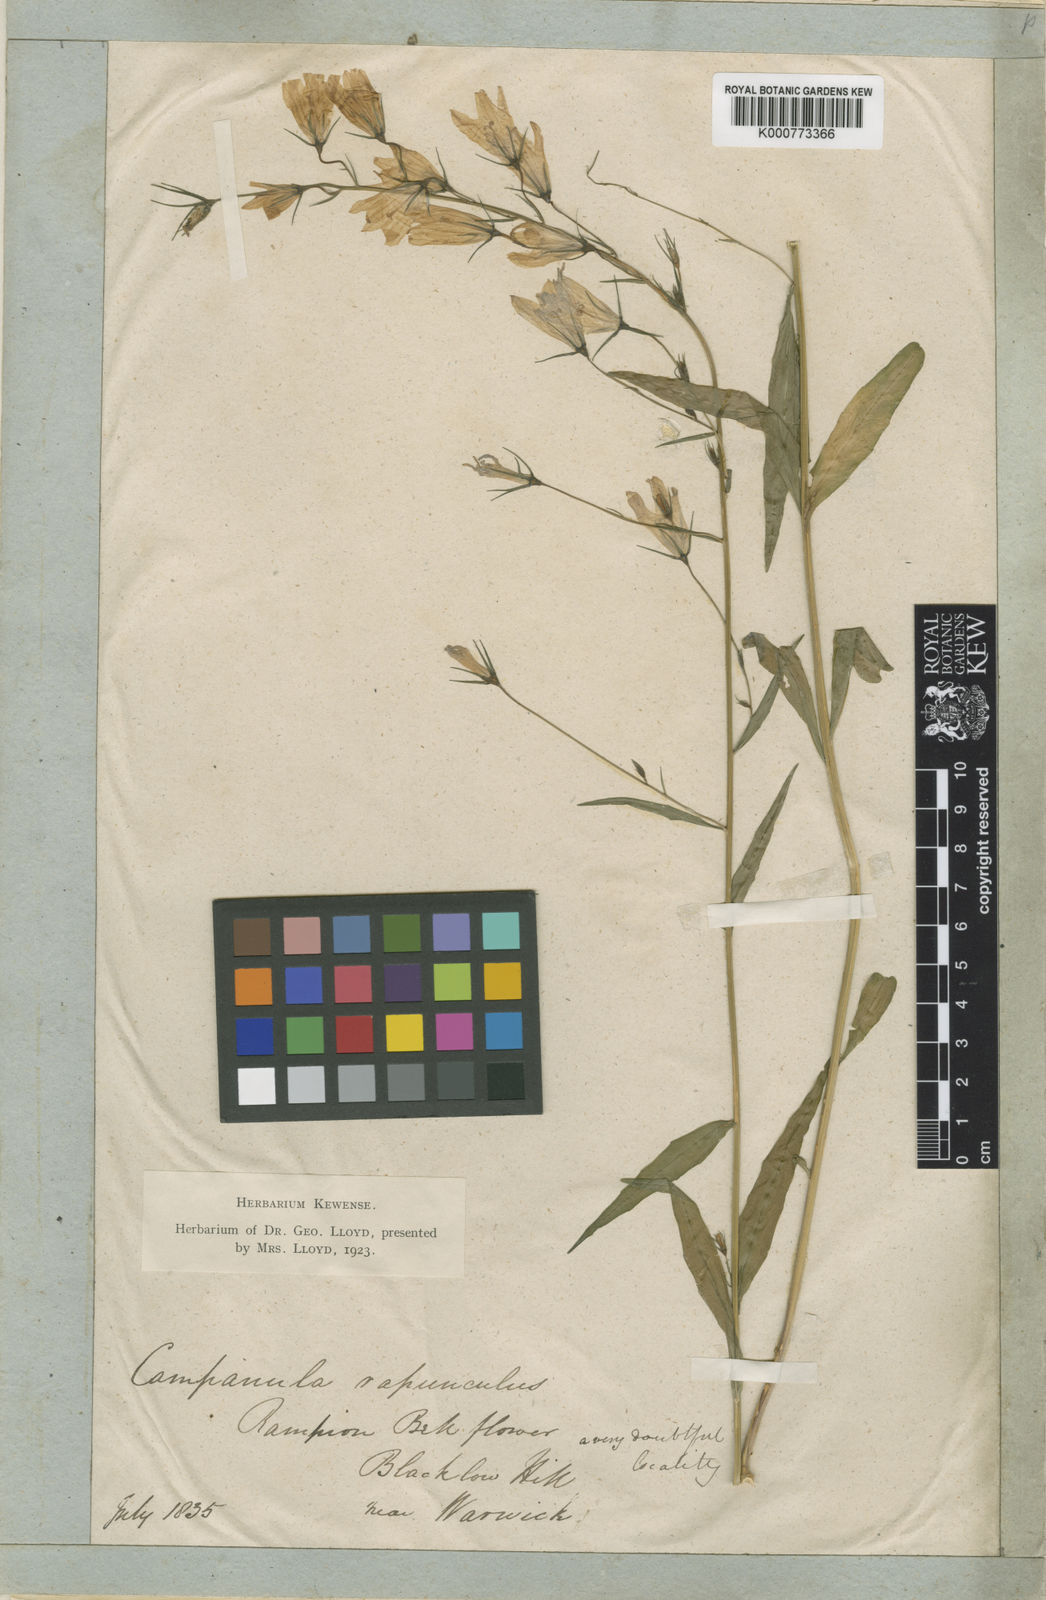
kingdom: Plantae
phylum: Tracheophyta
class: Magnoliopsida
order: Asterales
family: Campanulaceae
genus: Campanula
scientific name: Campanula patula
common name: Spreading bellflower
